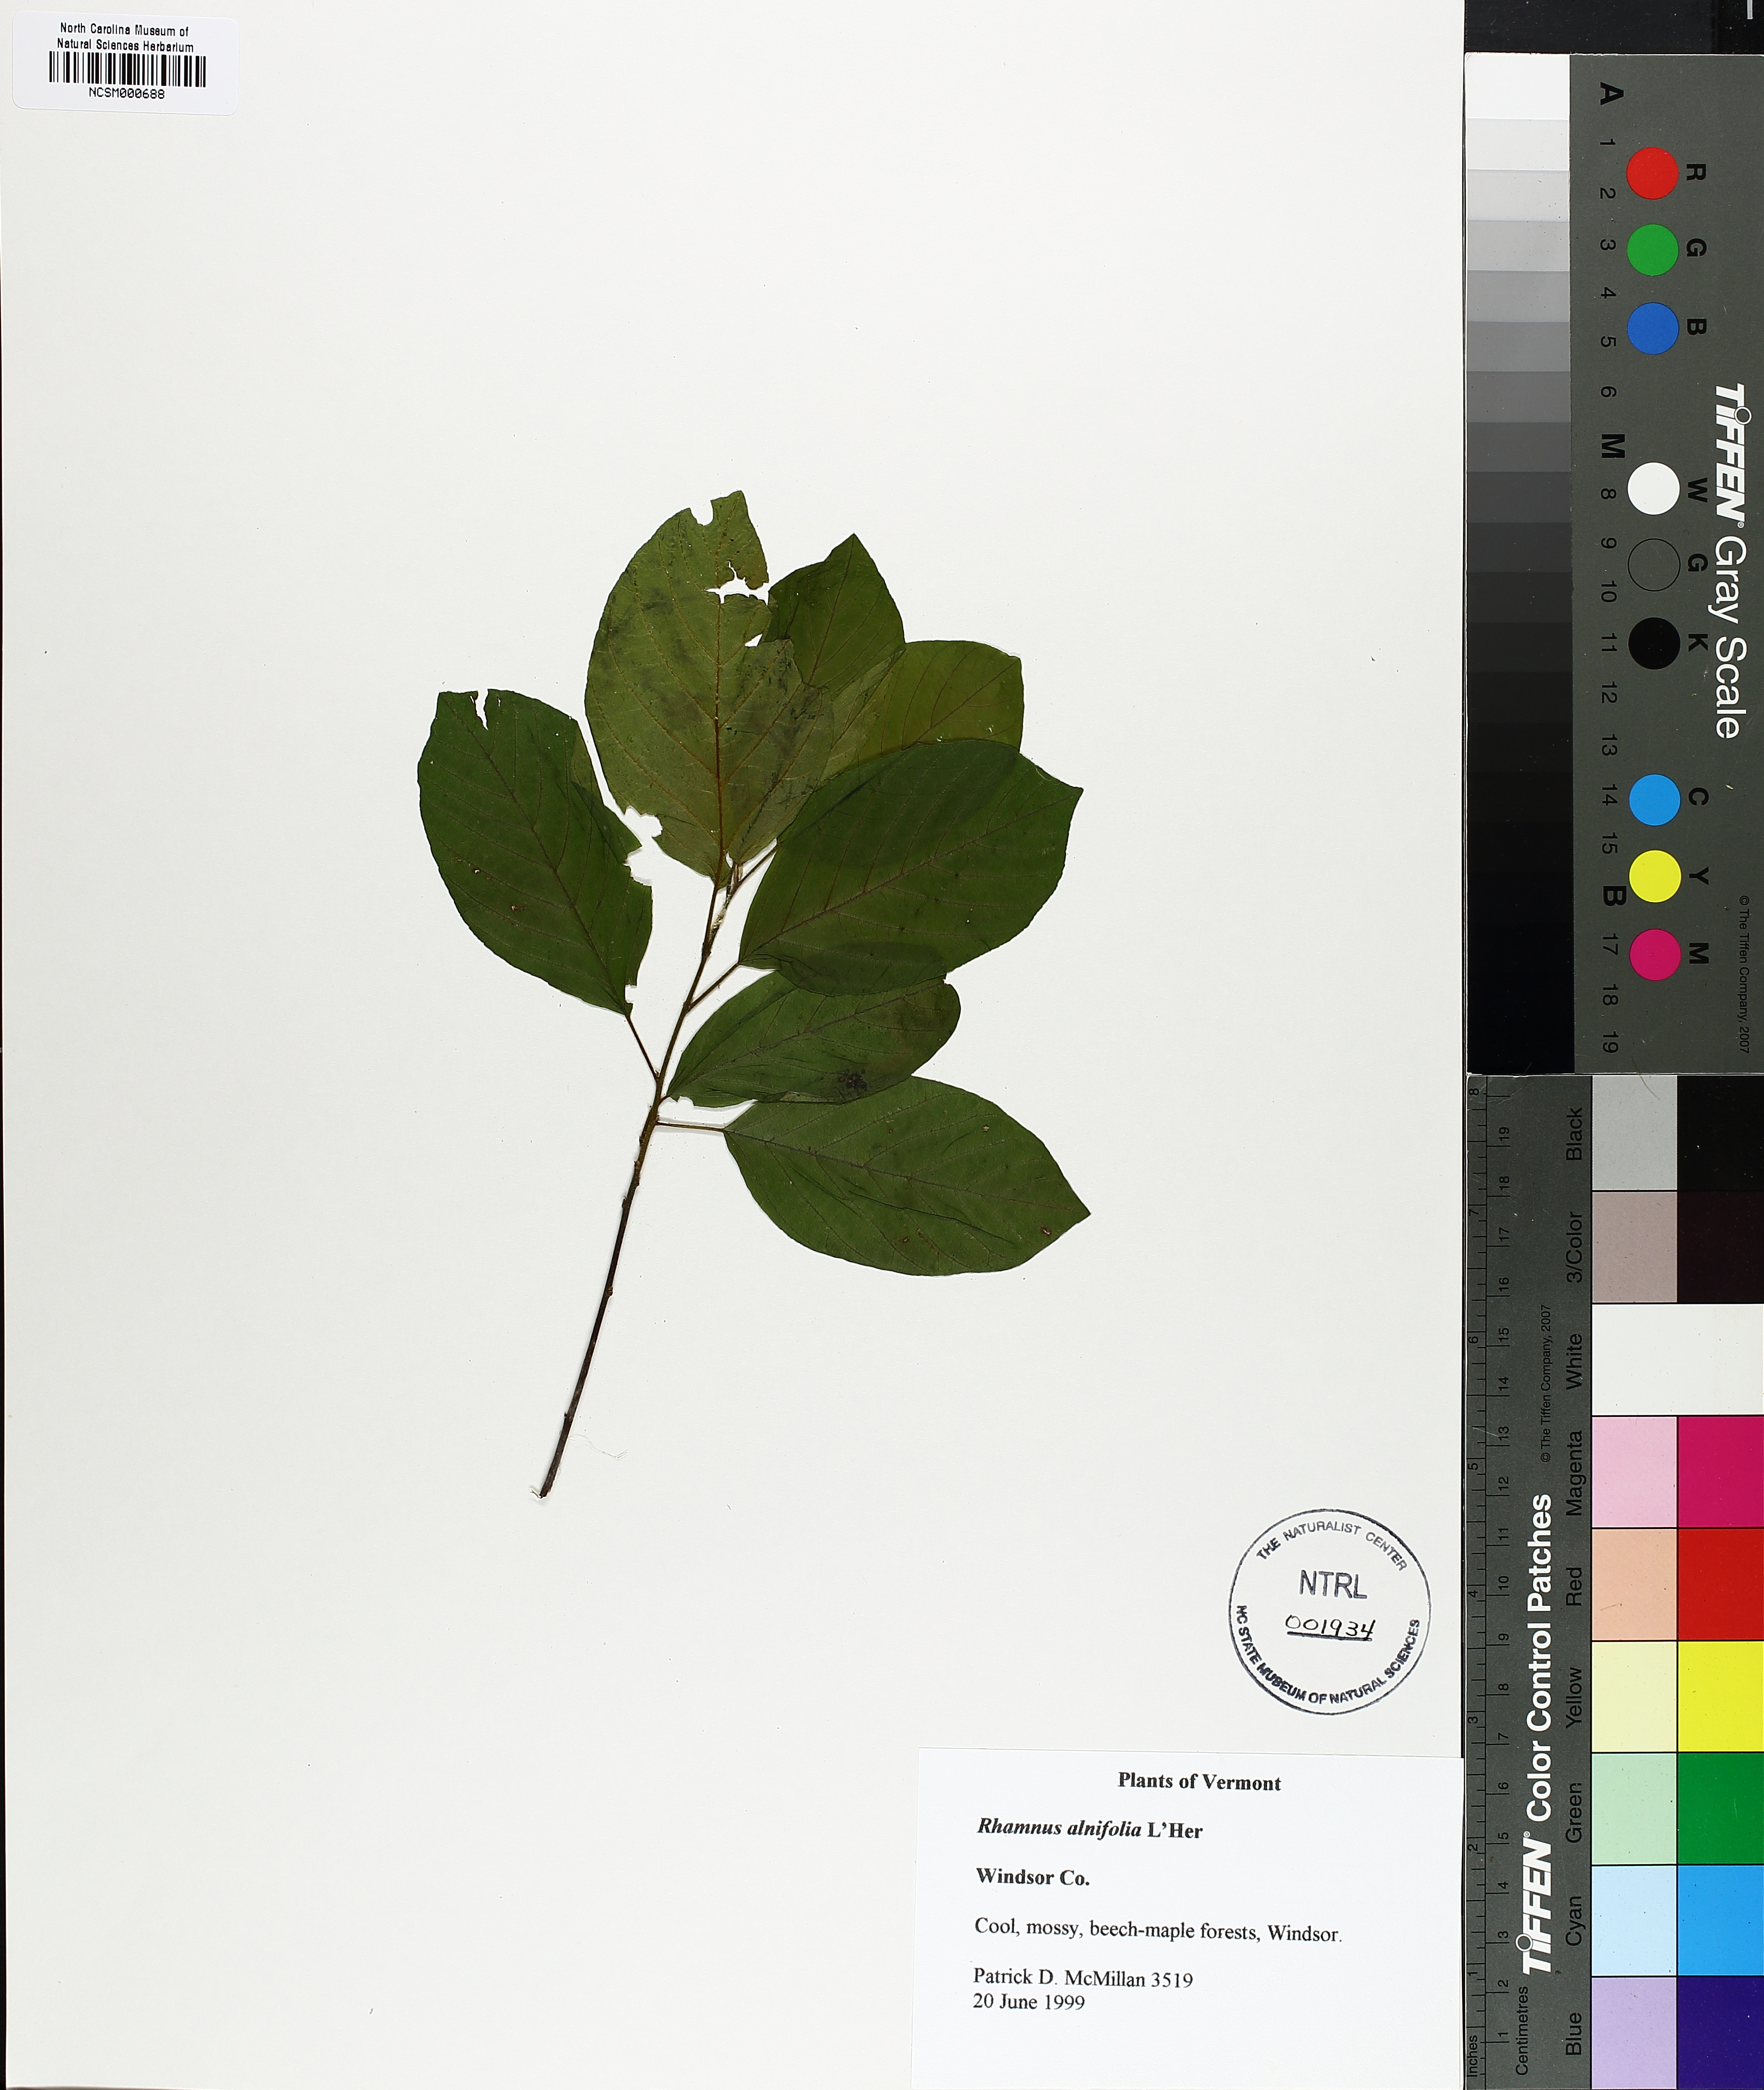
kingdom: Plantae
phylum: Tracheophyta
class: Magnoliopsida
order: Rosales
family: Rhamnaceae
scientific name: Rhamnaceae
